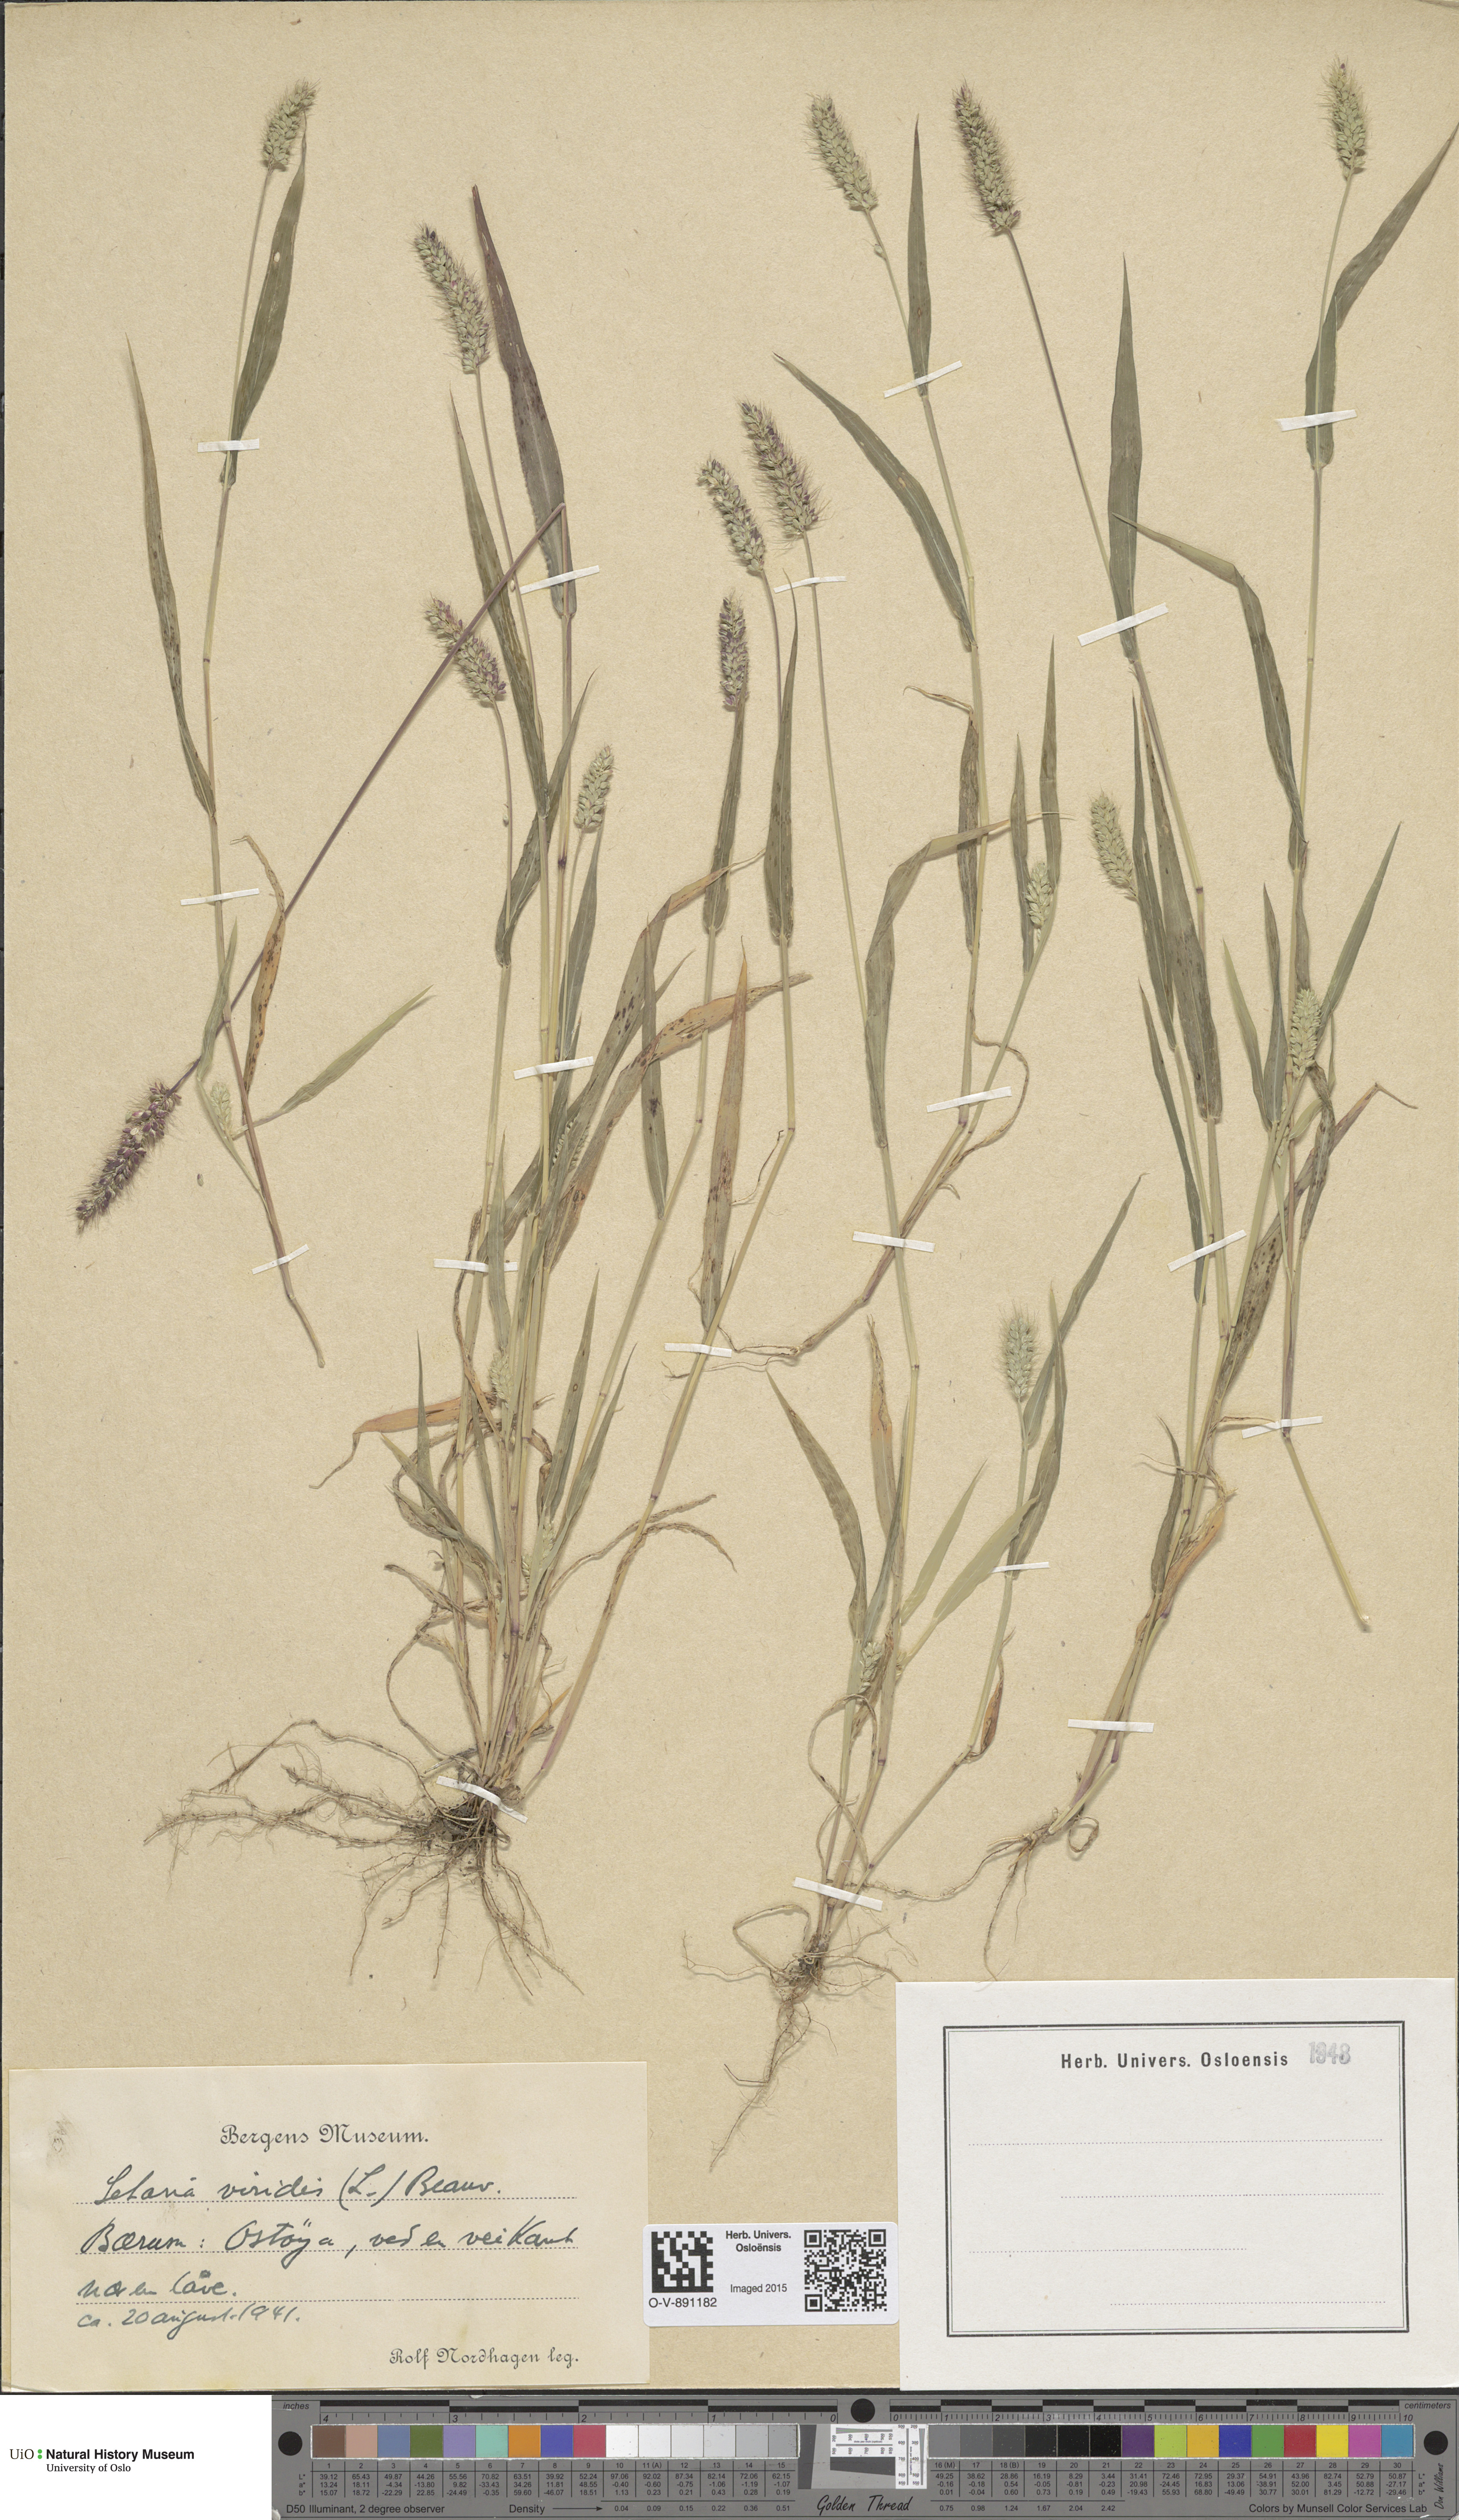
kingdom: Plantae
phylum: Tracheophyta
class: Liliopsida
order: Poales
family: Poaceae
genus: Setaria
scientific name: Setaria viridis
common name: Green bristlegrass
